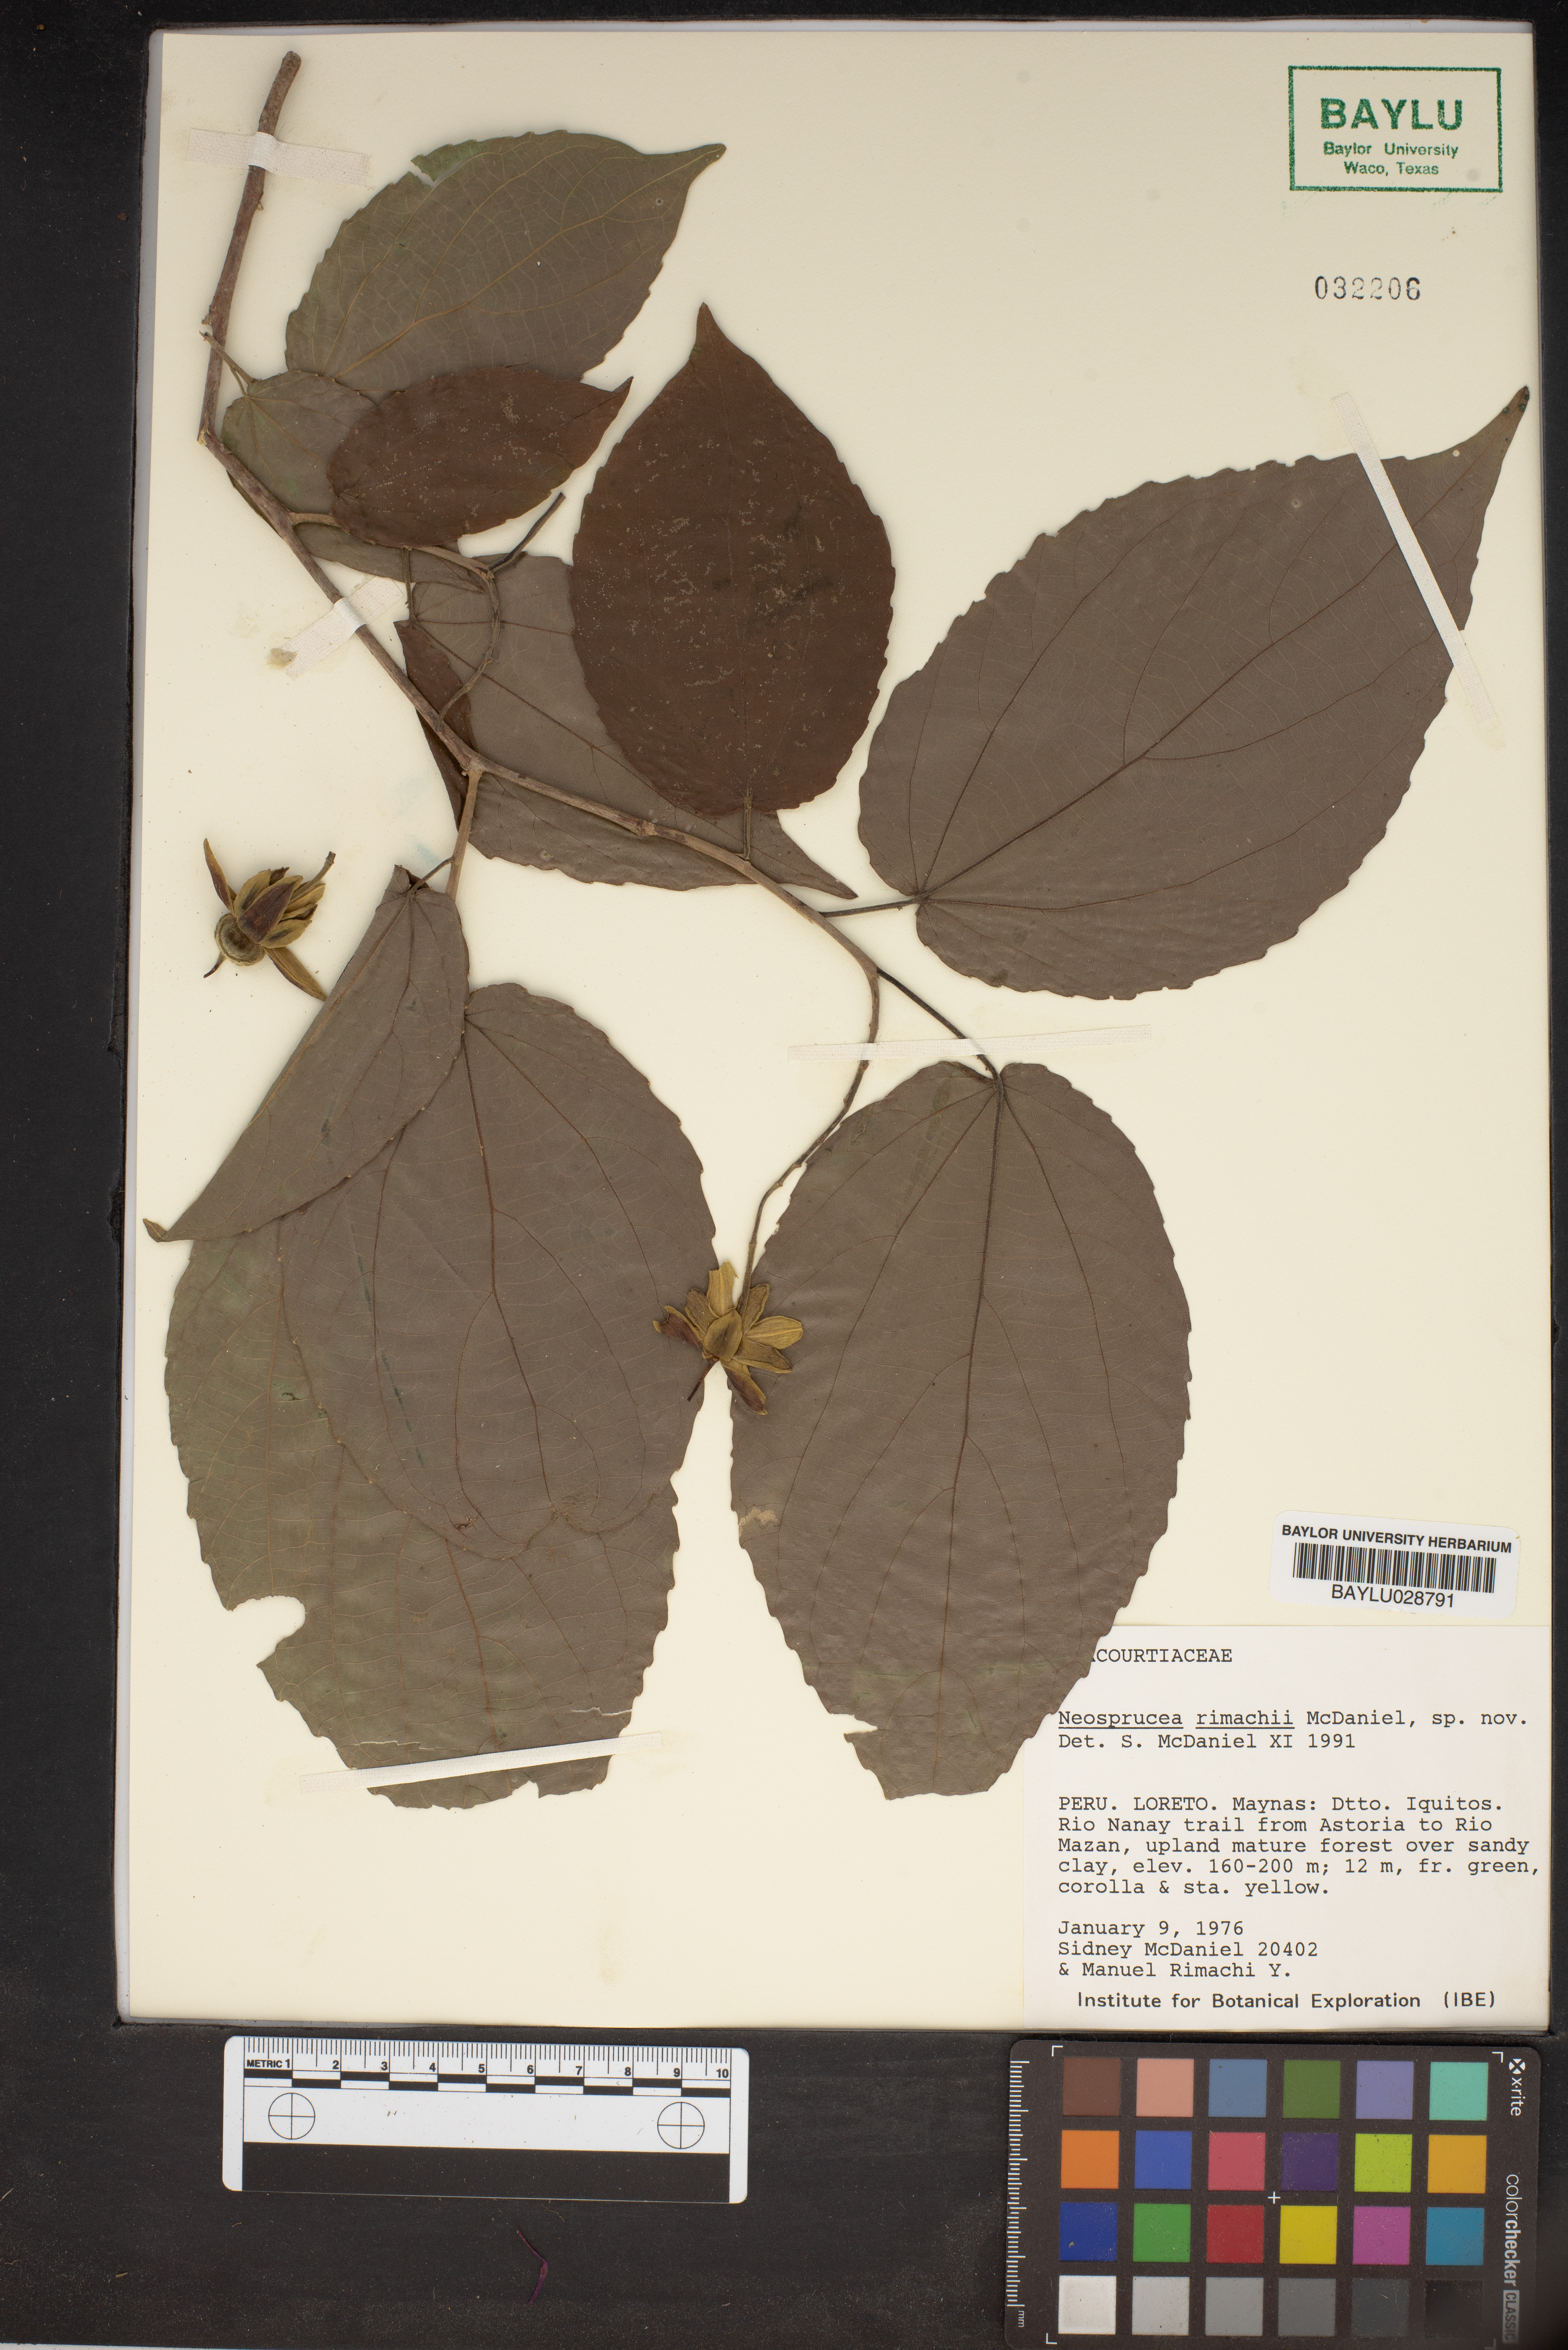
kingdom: Plantae
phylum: Tracheophyta
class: Magnoliopsida
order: Malpighiales
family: Salicaceae
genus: Neosprucea
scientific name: Neosprucea rimachii
